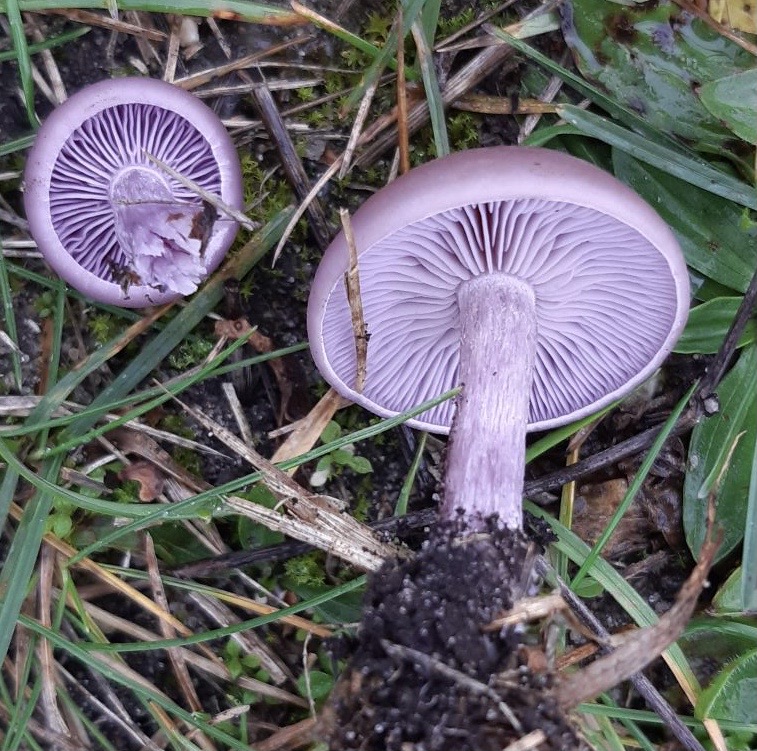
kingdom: Fungi
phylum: Basidiomycota
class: Agaricomycetes
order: Agaricales
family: Tricholomataceae
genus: Lepista
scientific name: Lepista nuda
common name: violet hekseringshat
